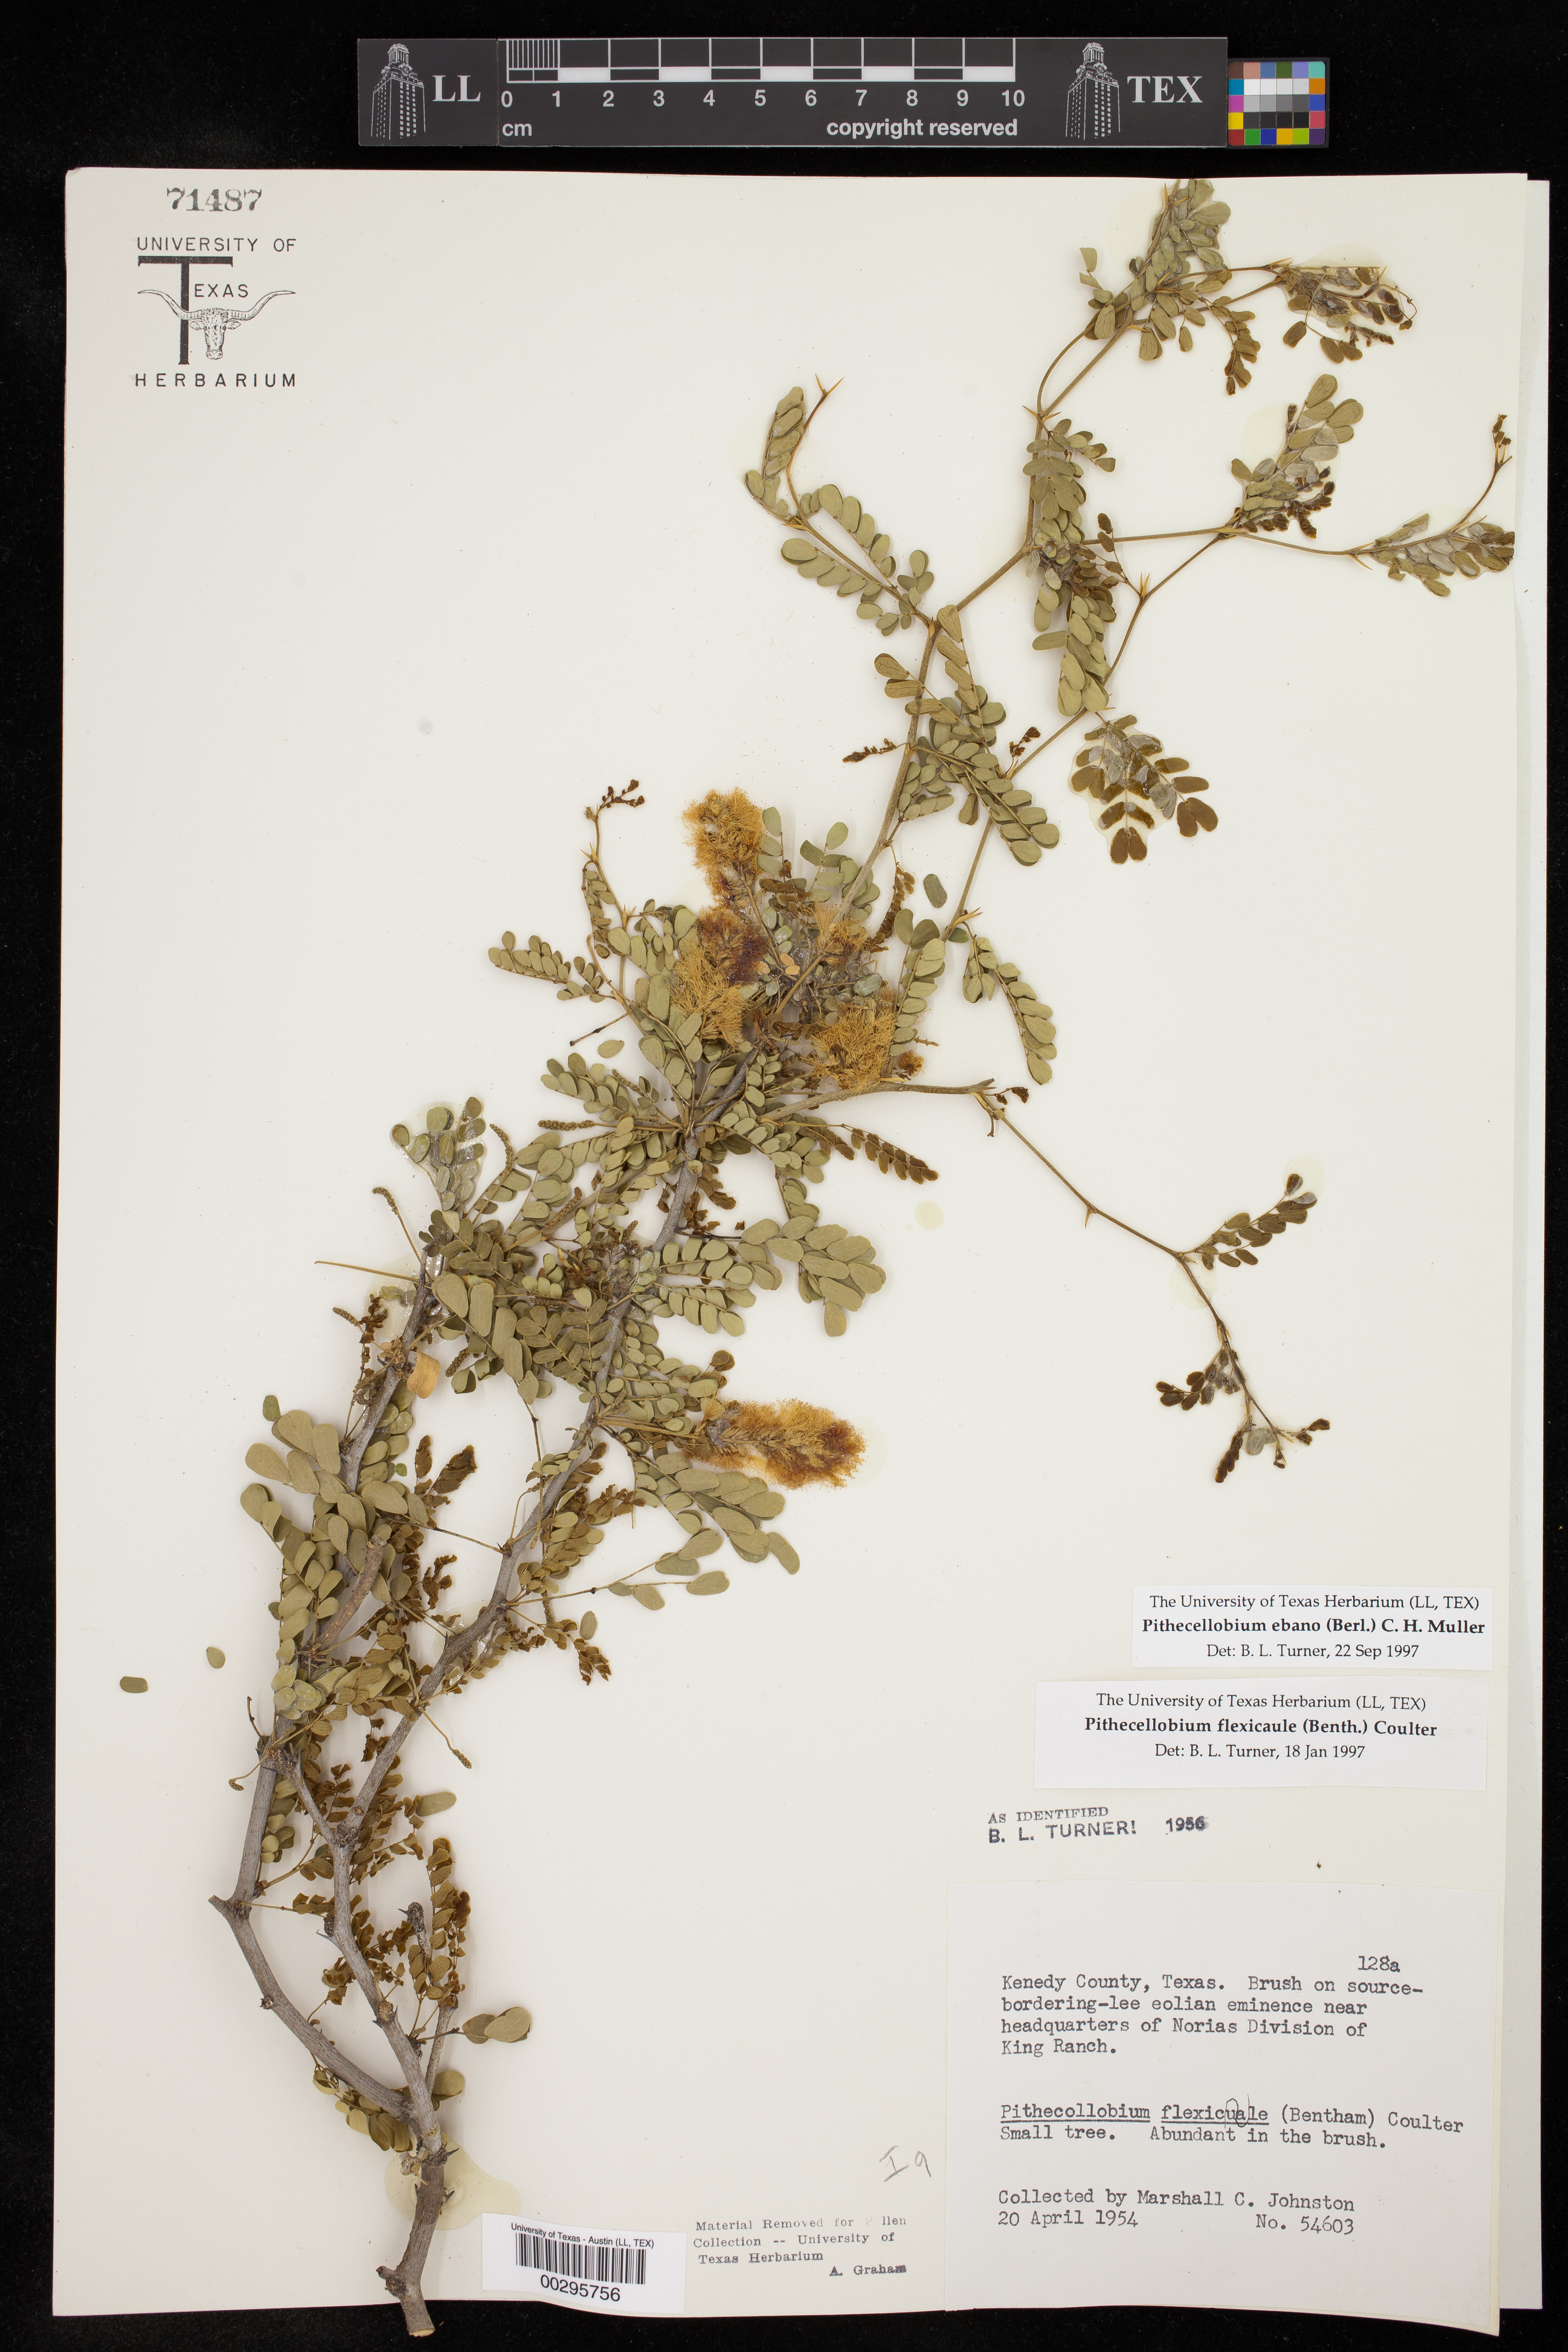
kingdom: Plantae
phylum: Tracheophyta
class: Magnoliopsida
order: Fabales
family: Fabaceae
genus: Ebenopsis
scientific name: Ebenopsis ebano
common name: Ebony blackbead
